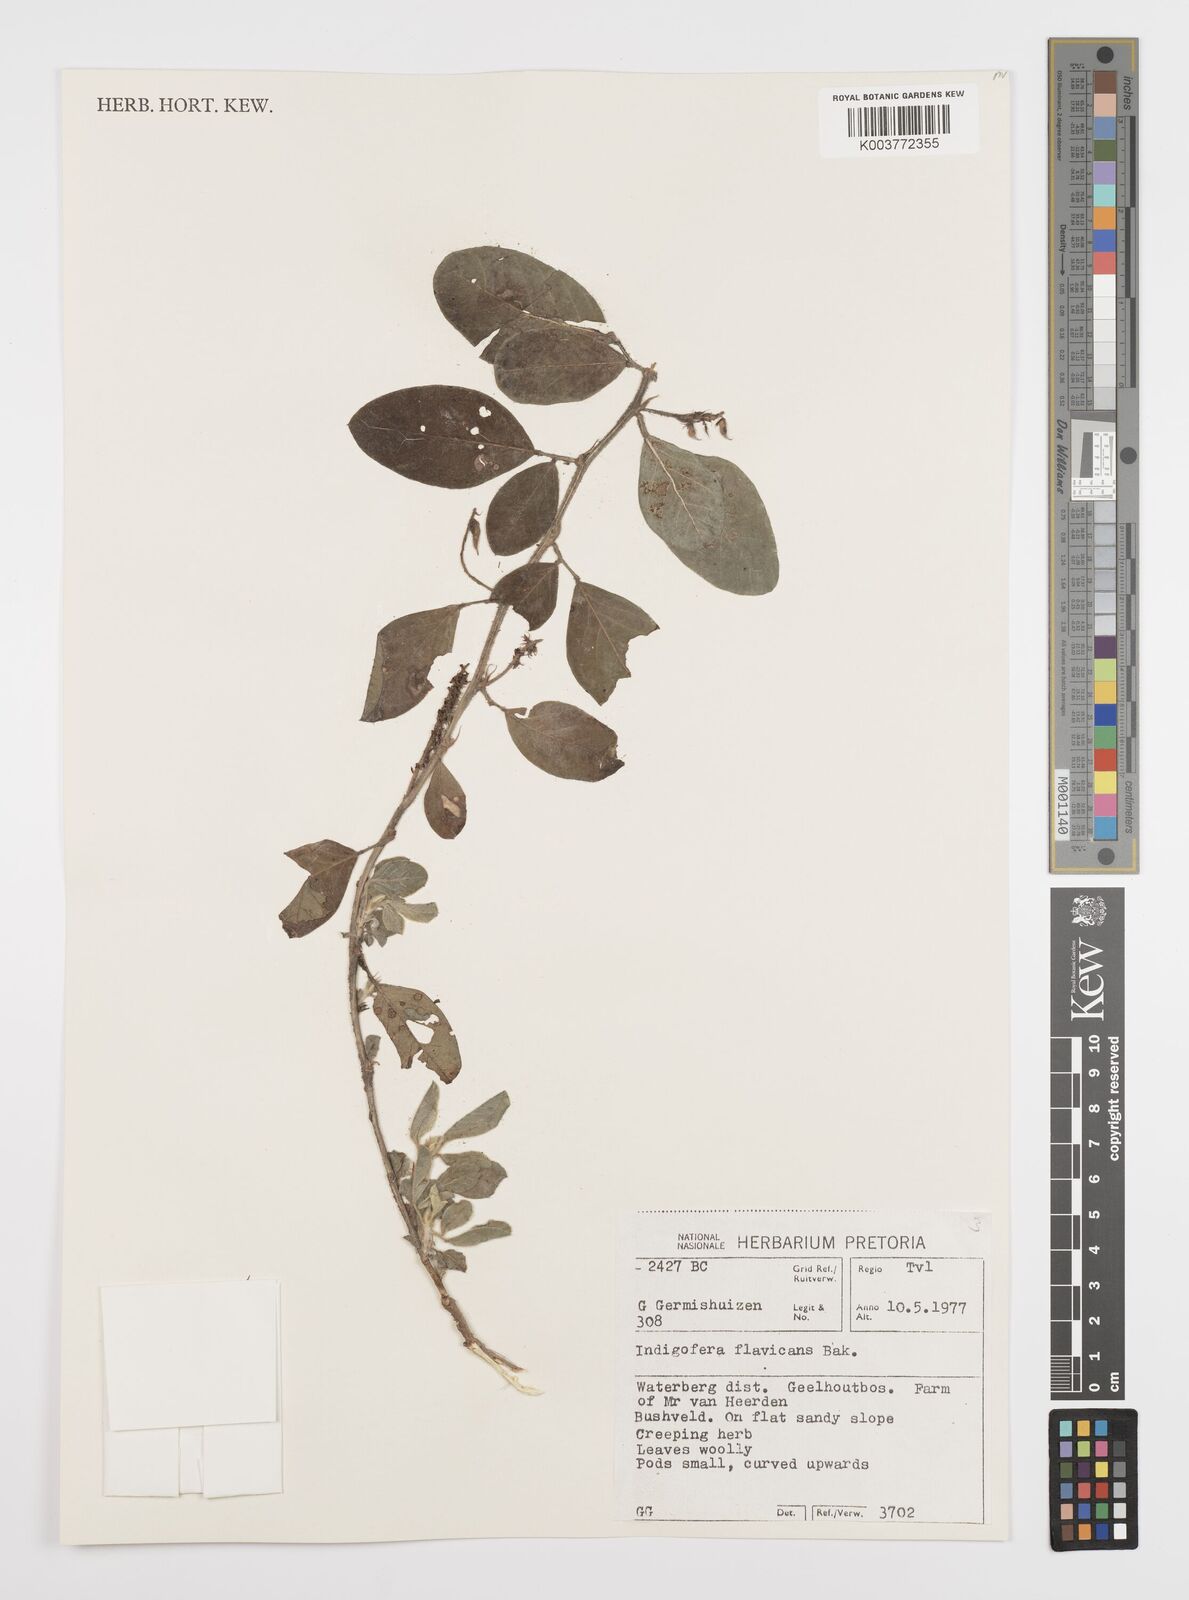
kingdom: Plantae
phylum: Tracheophyta
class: Magnoliopsida
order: Fabales
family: Fabaceae
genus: Indigofera
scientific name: Indigofera flavicans
